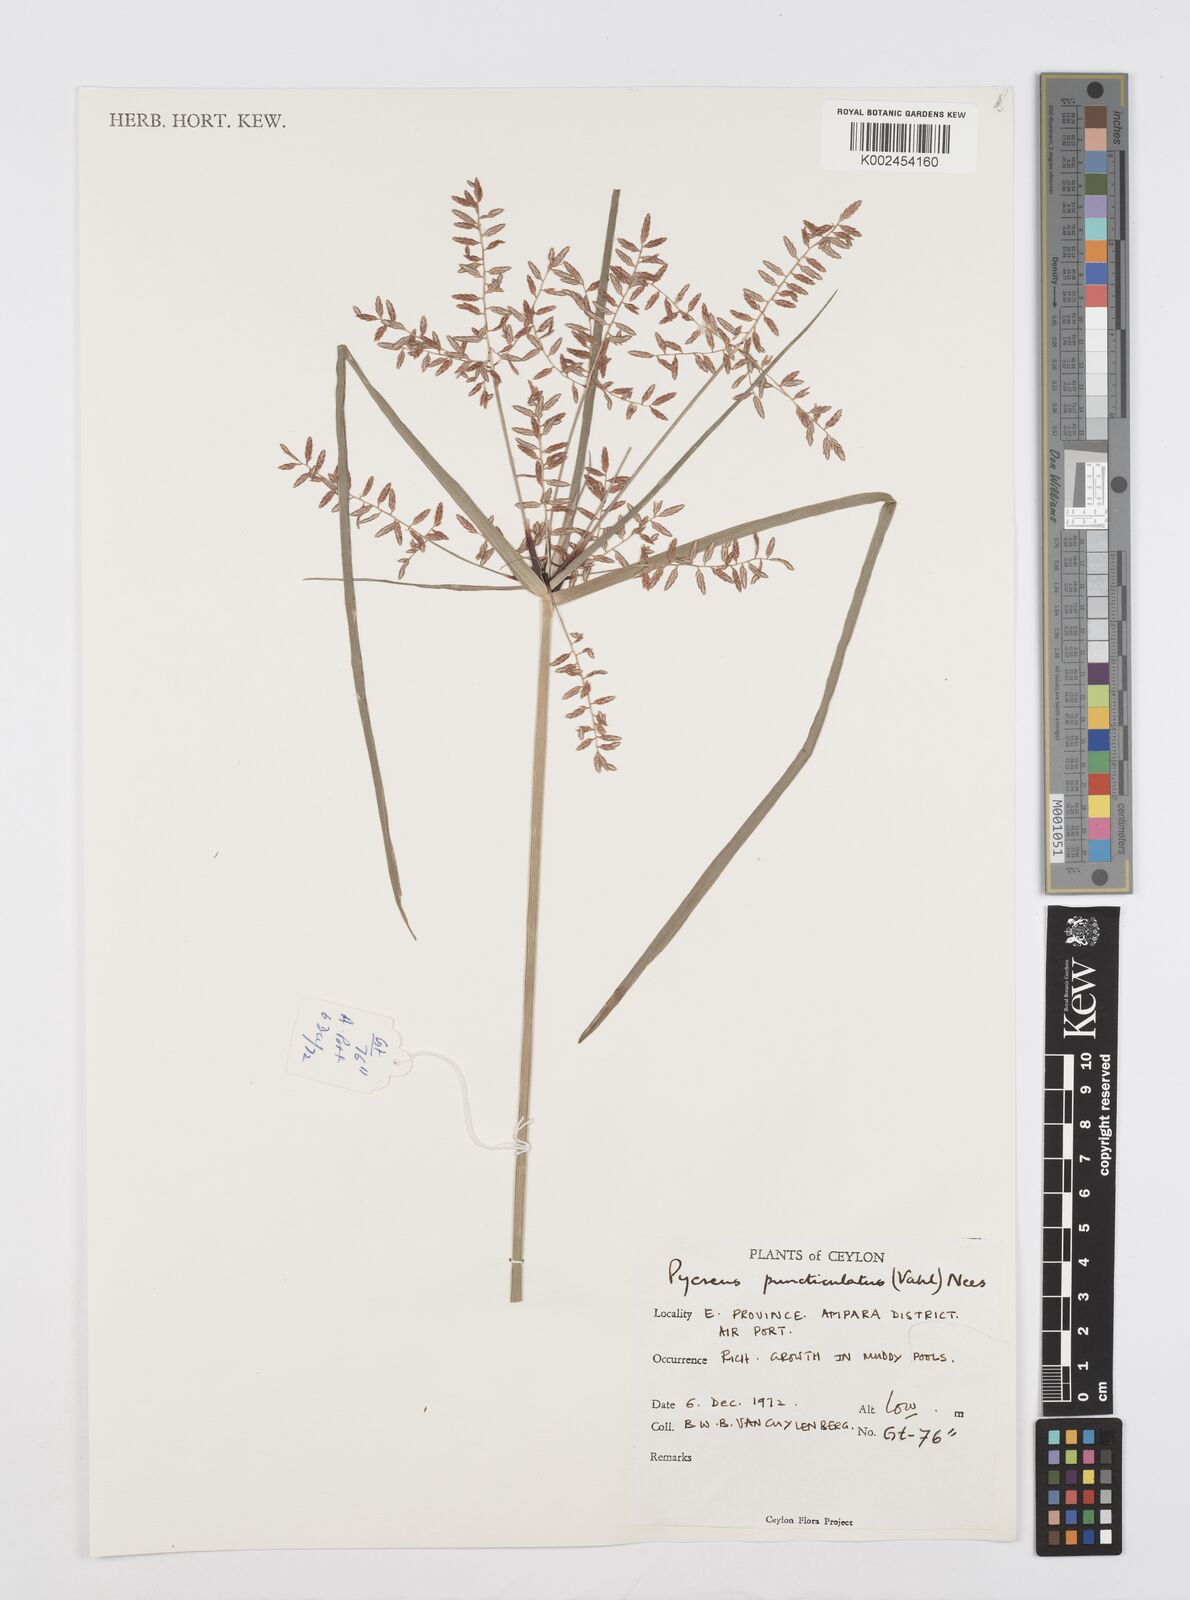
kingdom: Plantae
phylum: Tracheophyta
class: Liliopsida
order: Poales
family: Cyperaceae
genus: Cyperus
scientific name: Cyperus puncticulatus
